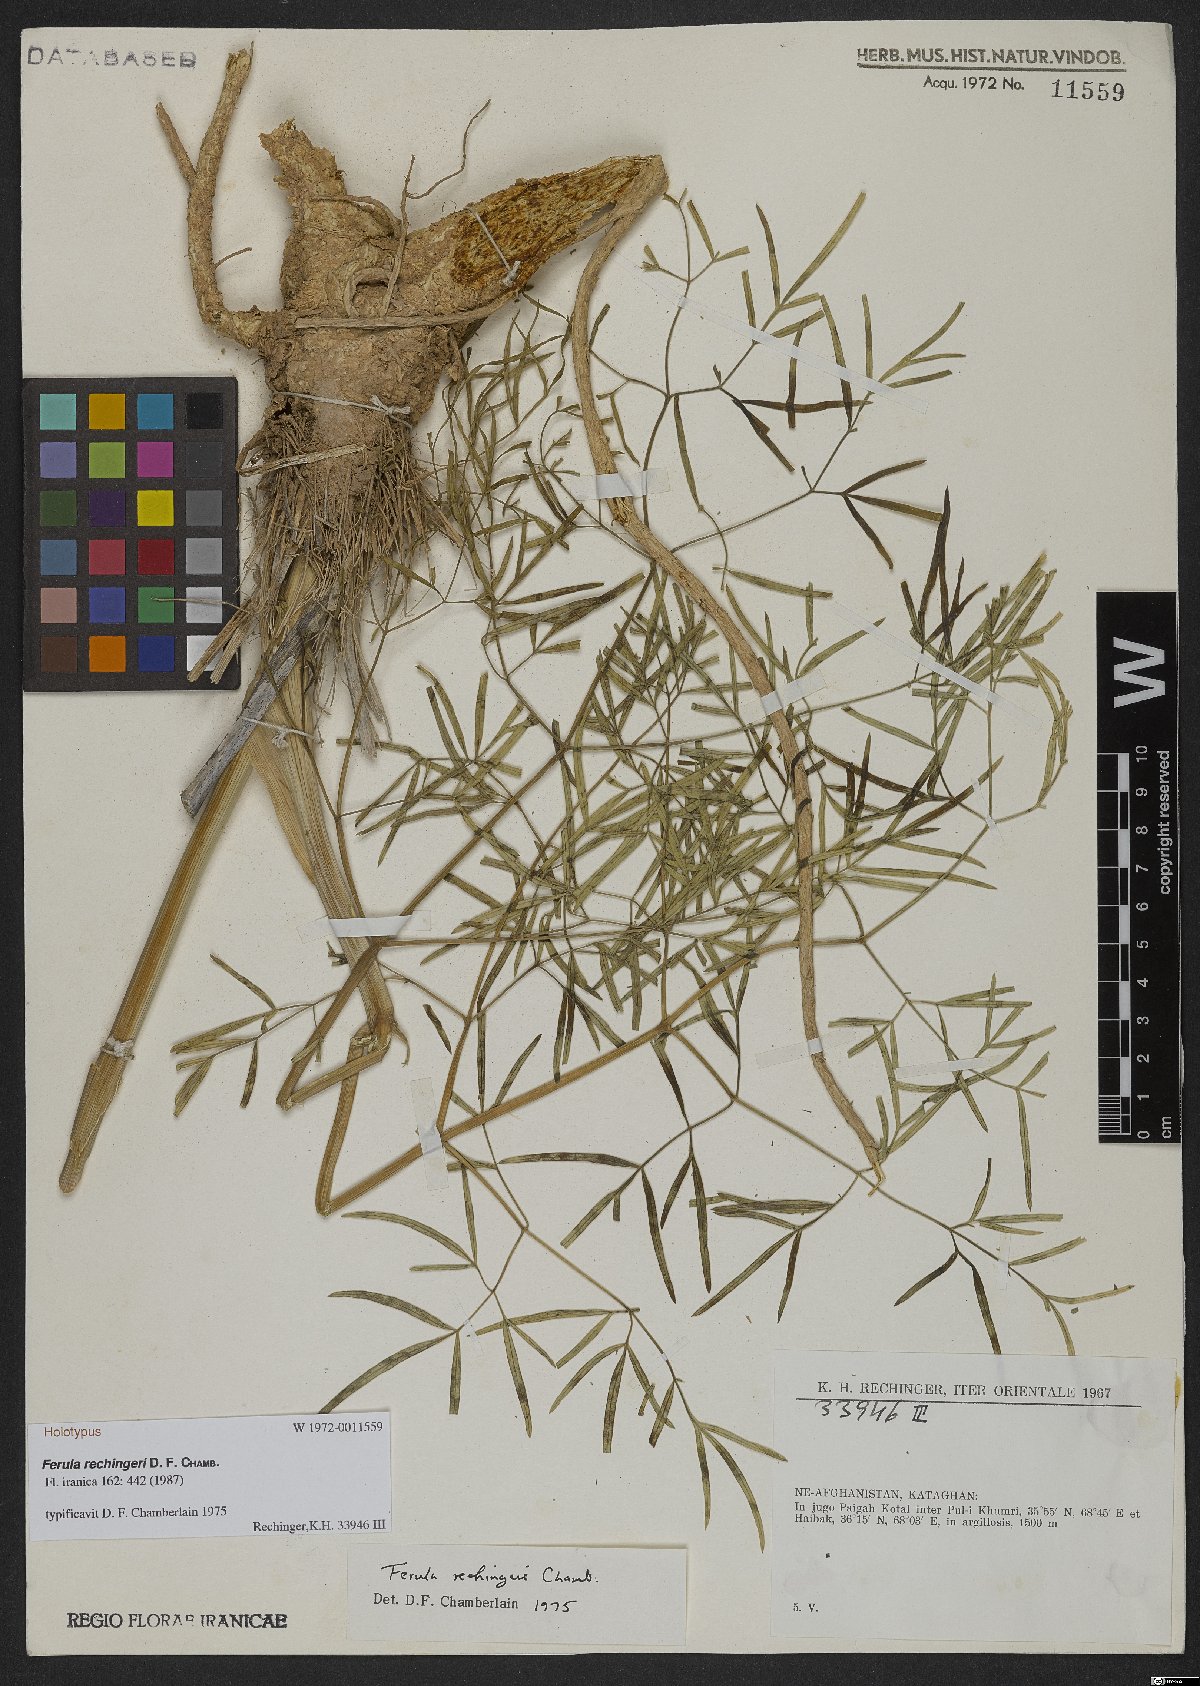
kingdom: Plantae
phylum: Tracheophyta
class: Magnoliopsida
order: Apiales
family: Apiaceae
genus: Ferula
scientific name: Ferula rechingeri
